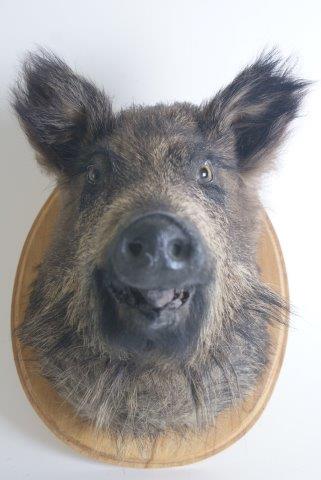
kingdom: Animalia
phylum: Chordata
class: Mammalia
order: Artiodactyla
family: Suidae
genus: Sus
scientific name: Sus scrofa
